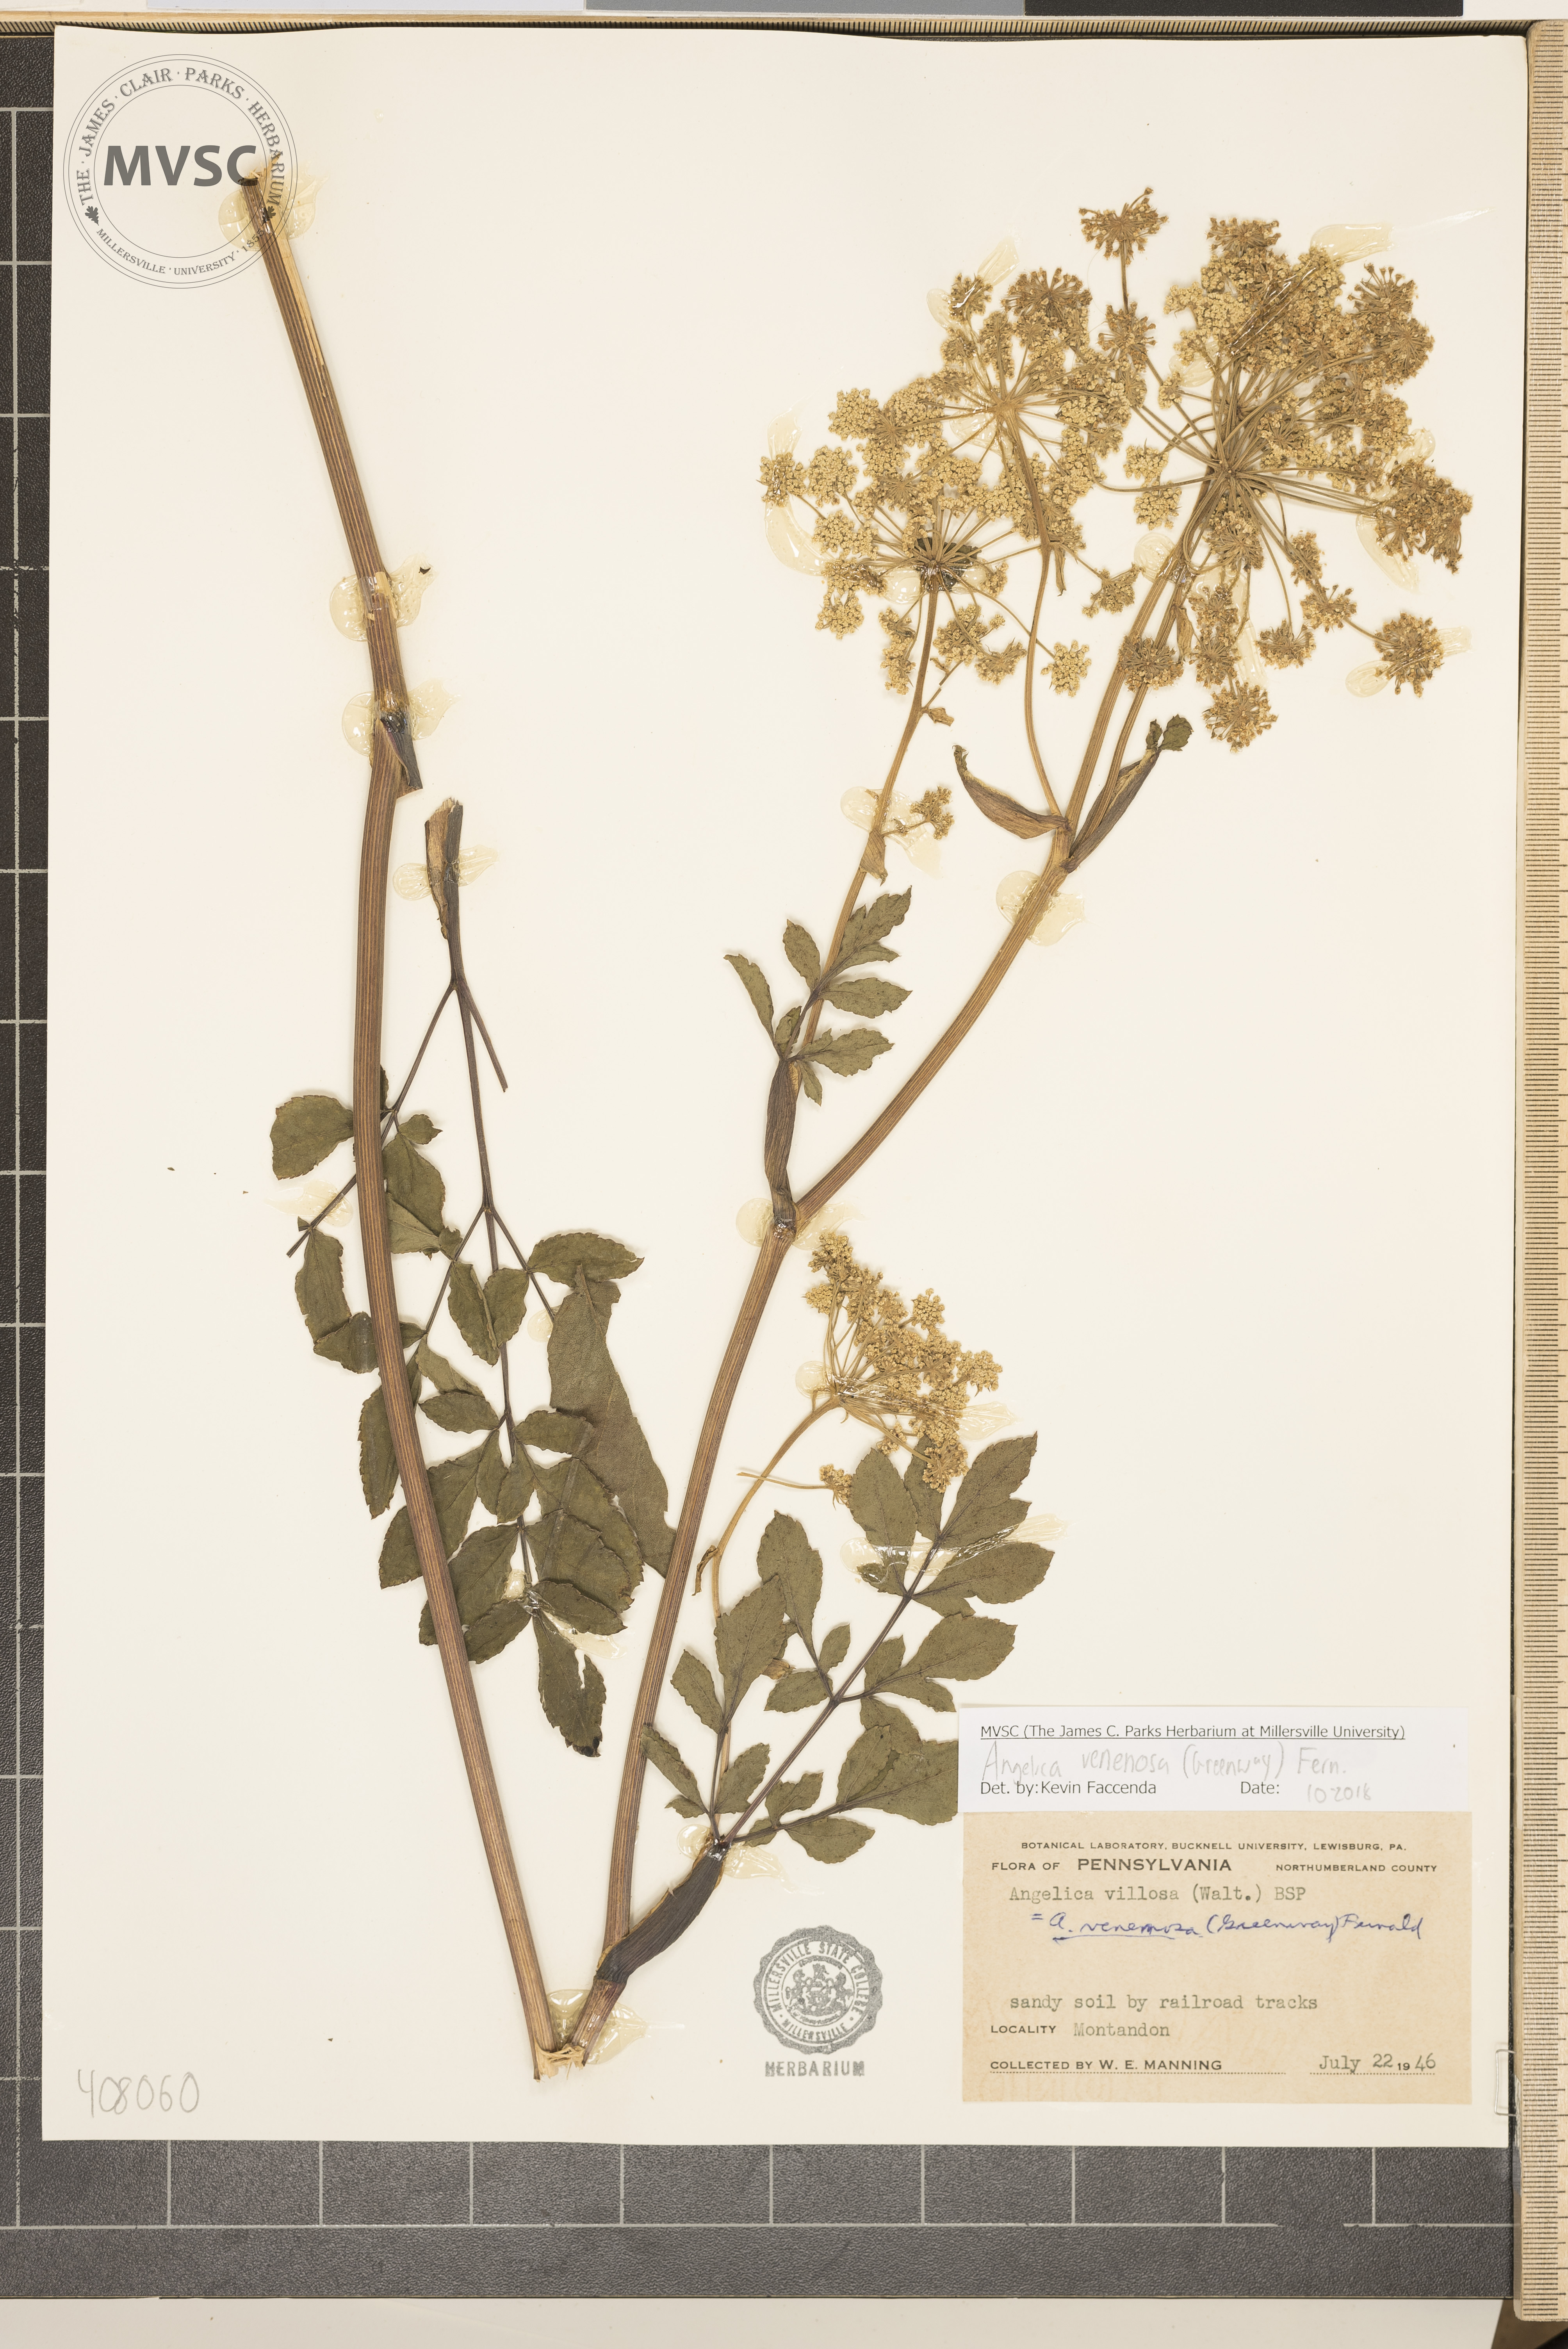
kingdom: Plantae
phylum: Tracheophyta
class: Magnoliopsida
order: Apiales
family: Apiaceae
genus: Angelica
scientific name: Angelica venenosa
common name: Hairy angelica
